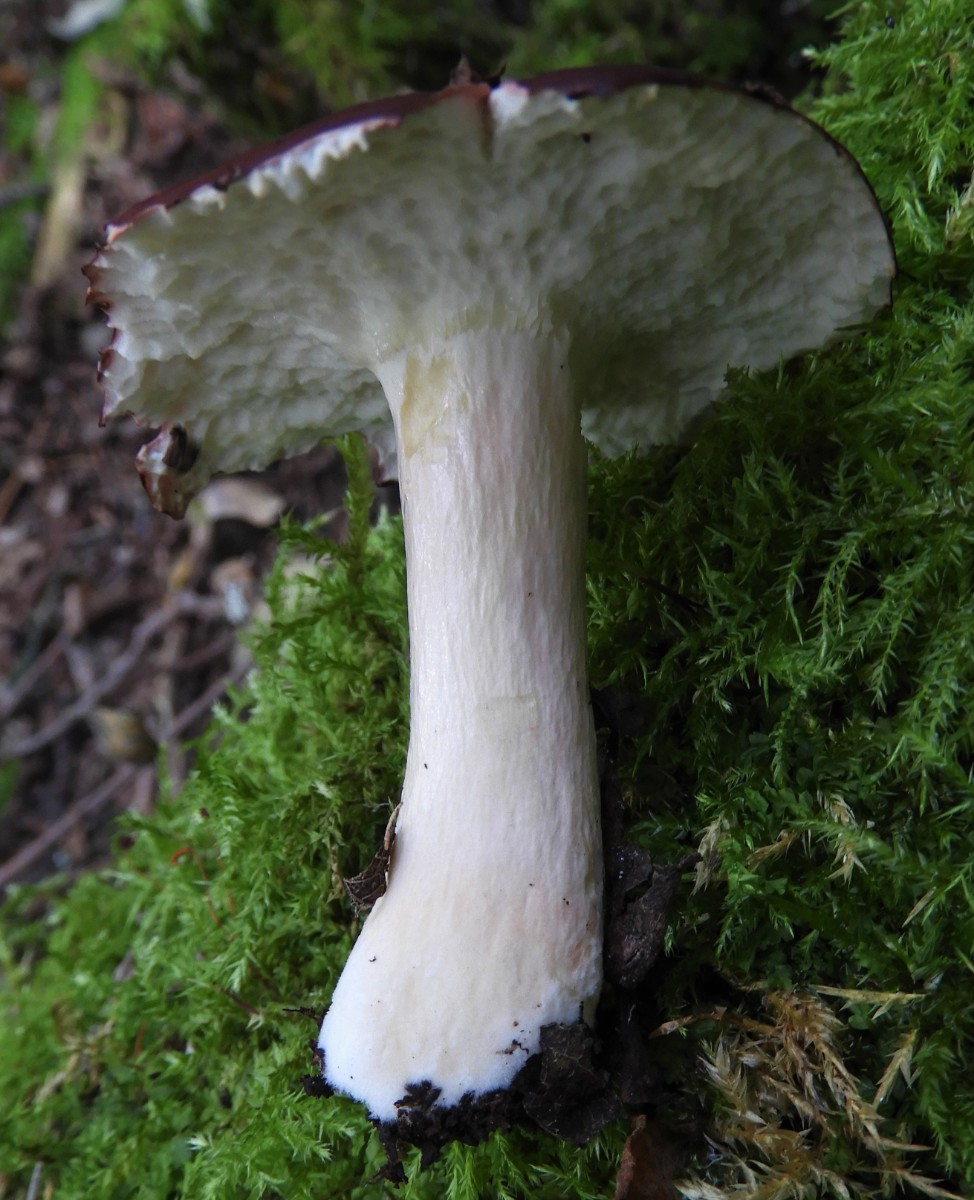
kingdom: Fungi
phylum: Basidiomycota
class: Agaricomycetes
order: Russulales
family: Russulaceae
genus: Russula
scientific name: Russula
